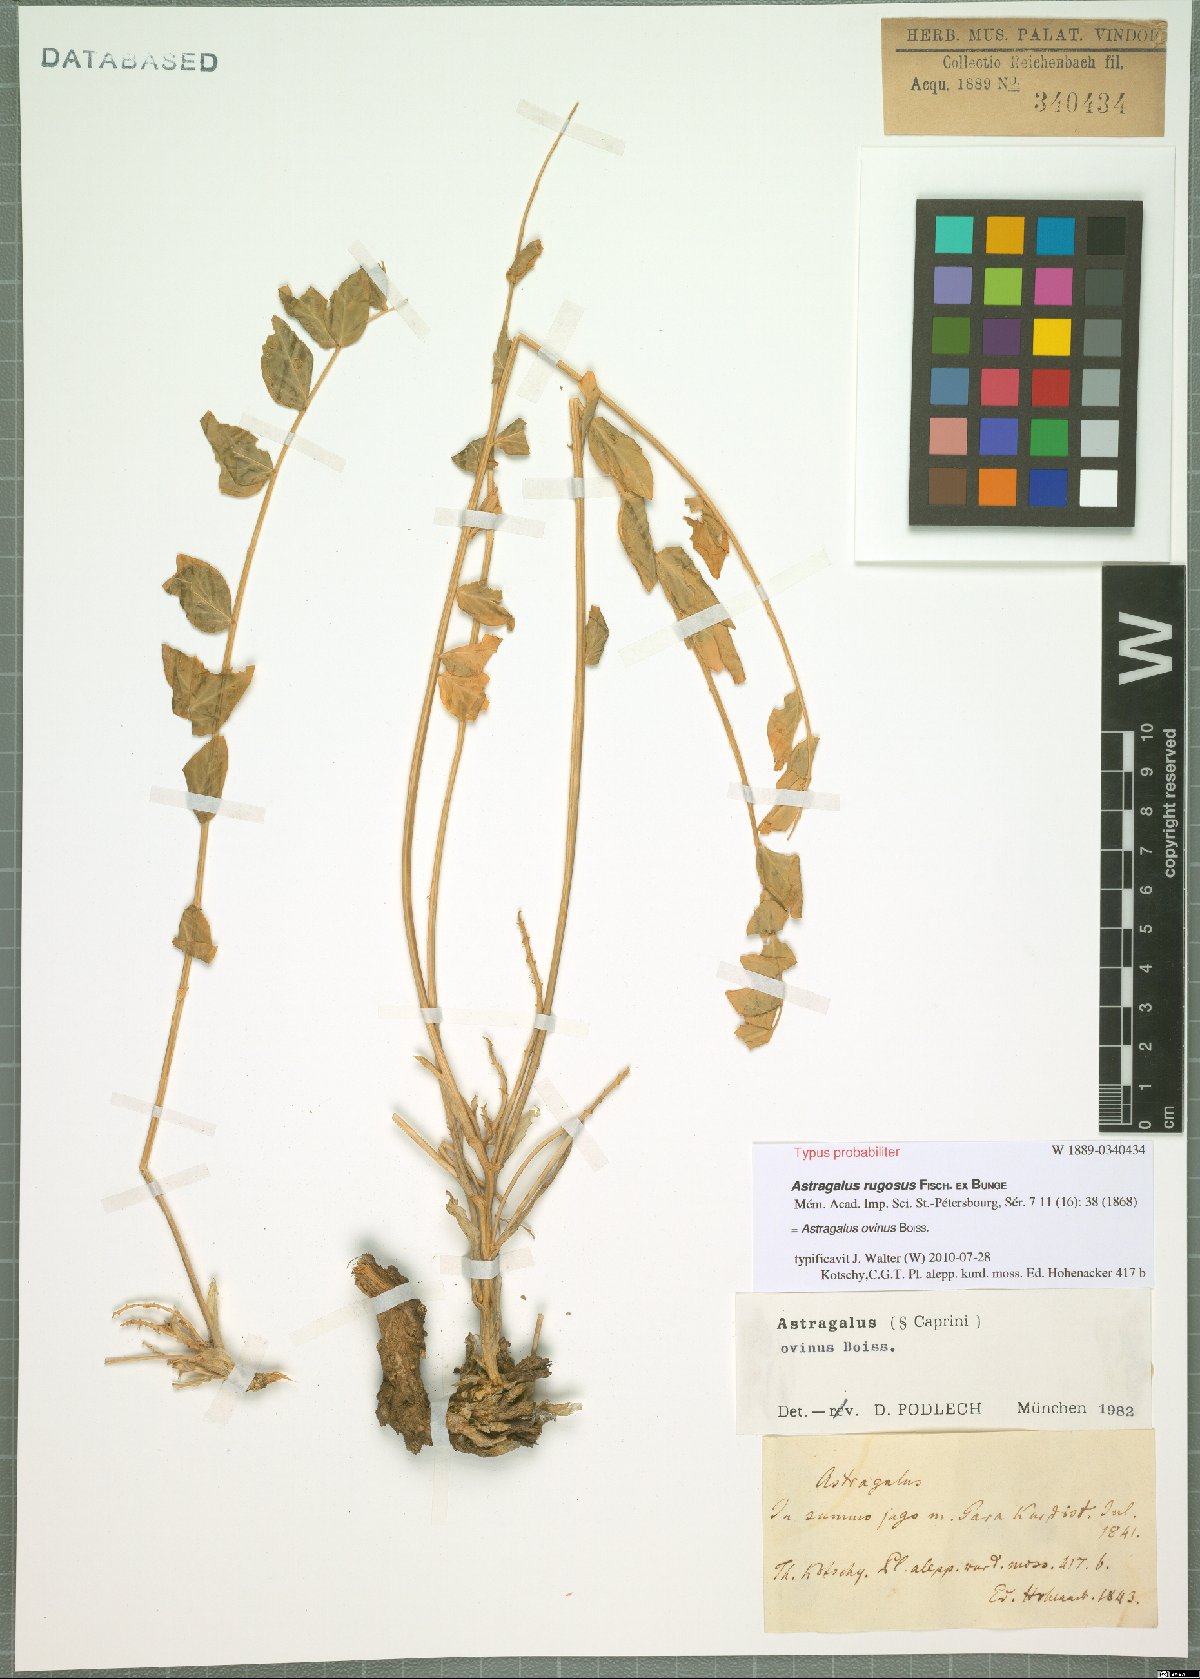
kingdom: Plantae
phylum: Tracheophyta
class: Magnoliopsida
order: Fabales
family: Fabaceae
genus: Astragalus
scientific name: Astragalus ovinus
